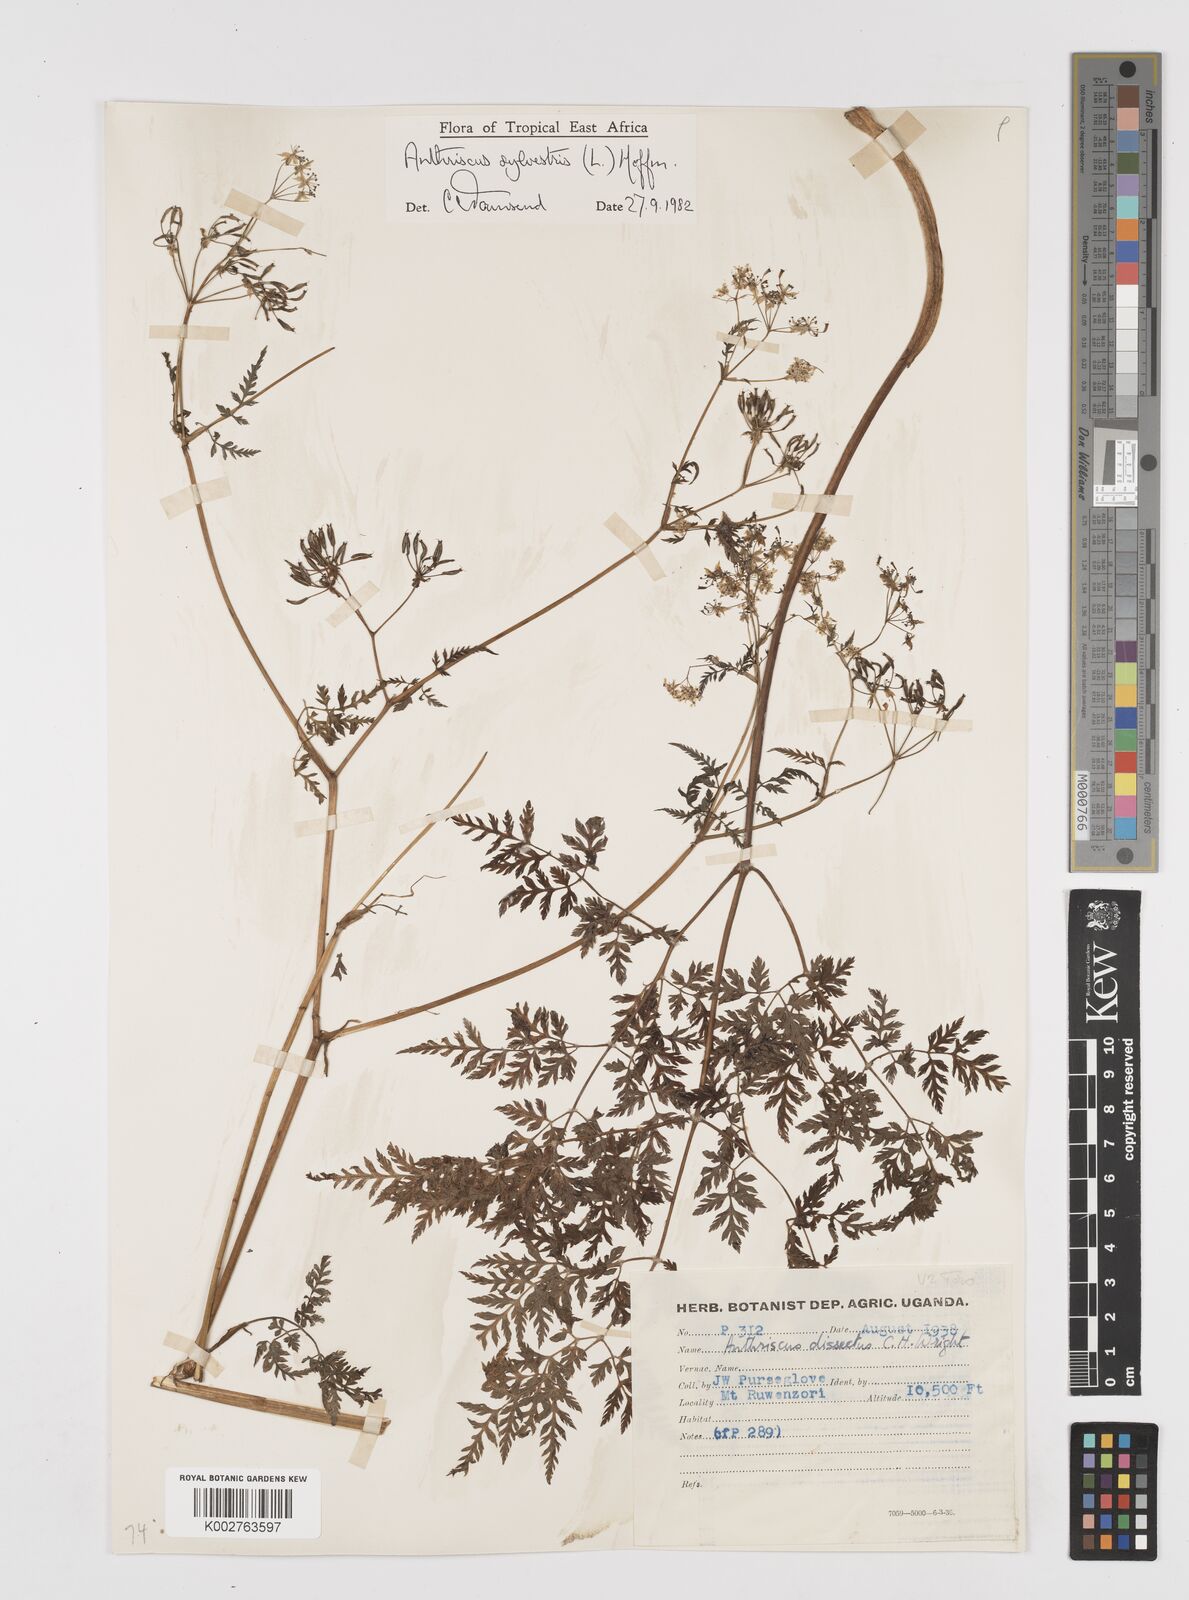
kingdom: Plantae
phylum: Tracheophyta
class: Magnoliopsida
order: Apiales
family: Apiaceae
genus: Anthriscus
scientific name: Anthriscus sylvestris
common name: Cow parsley
